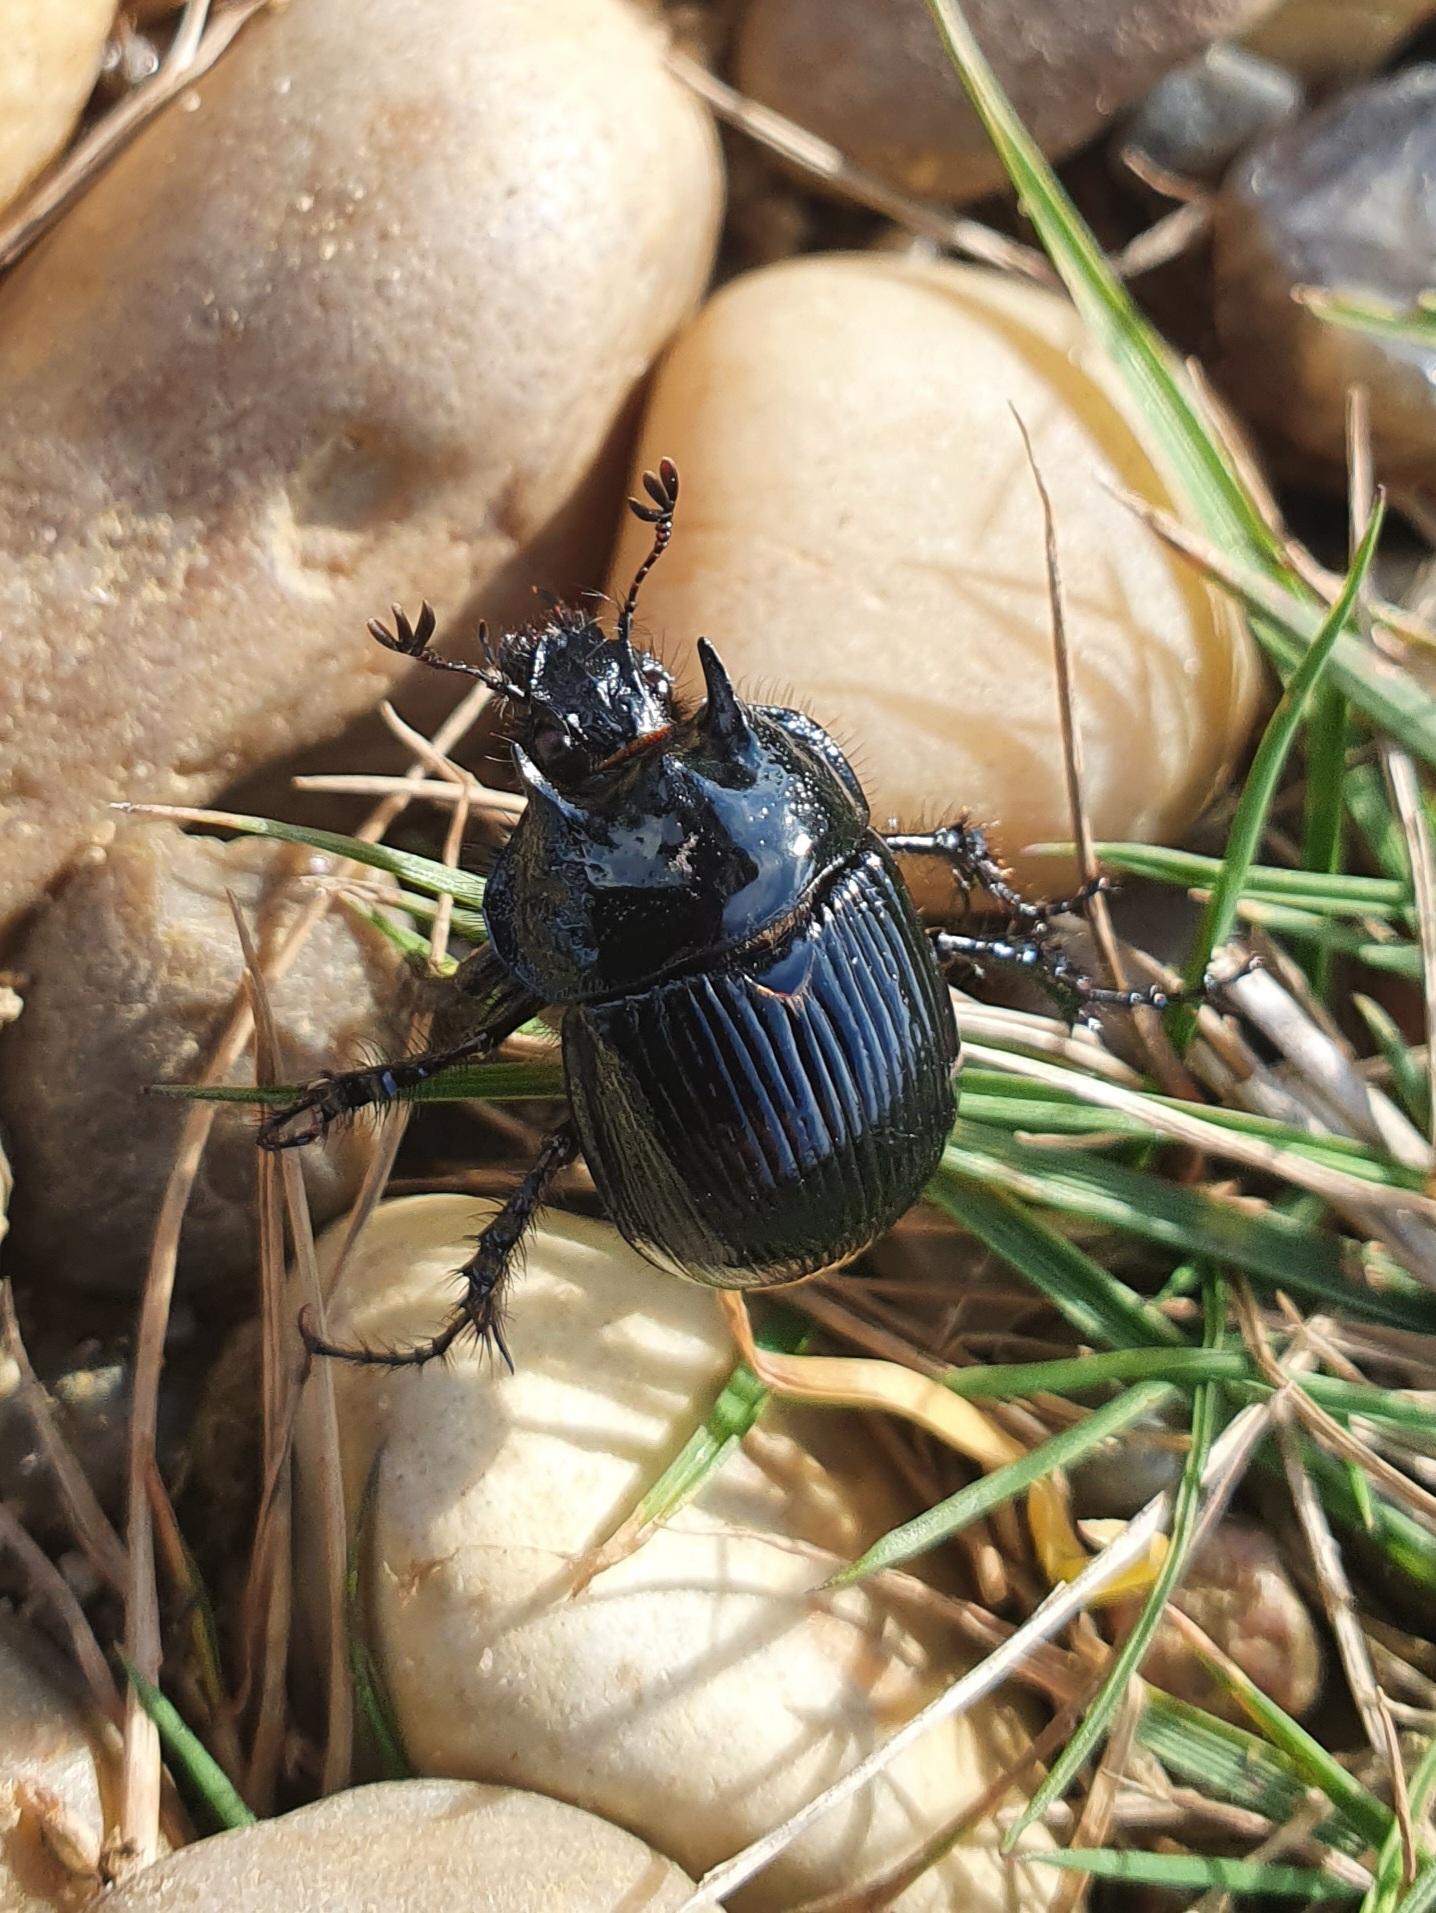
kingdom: Animalia
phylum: Arthropoda
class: Insecta
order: Coleoptera
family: Geotrupidae
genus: Typhaeus
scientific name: Typhaeus typhoeus
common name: Trehornet skarnbasse
